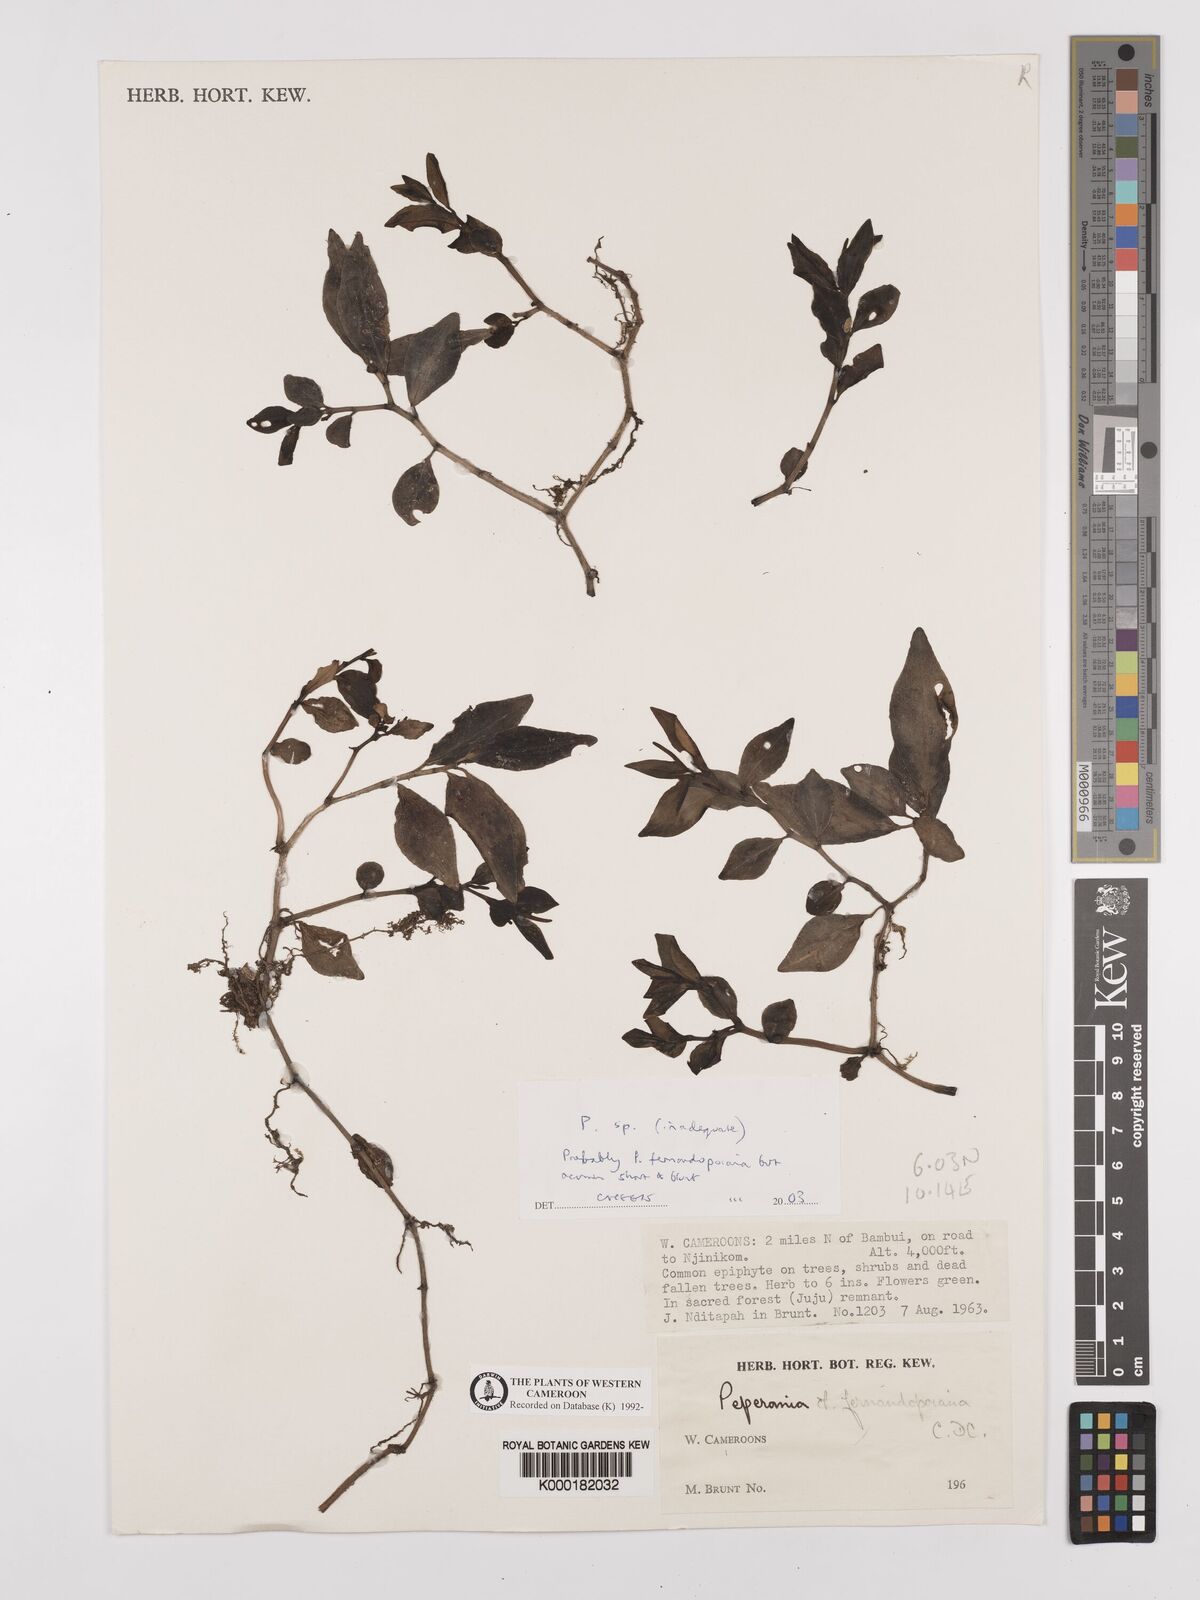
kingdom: Plantae
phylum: Tracheophyta
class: Magnoliopsida
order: Piperales
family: Piperaceae
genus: Peperomia
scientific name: Peperomia
